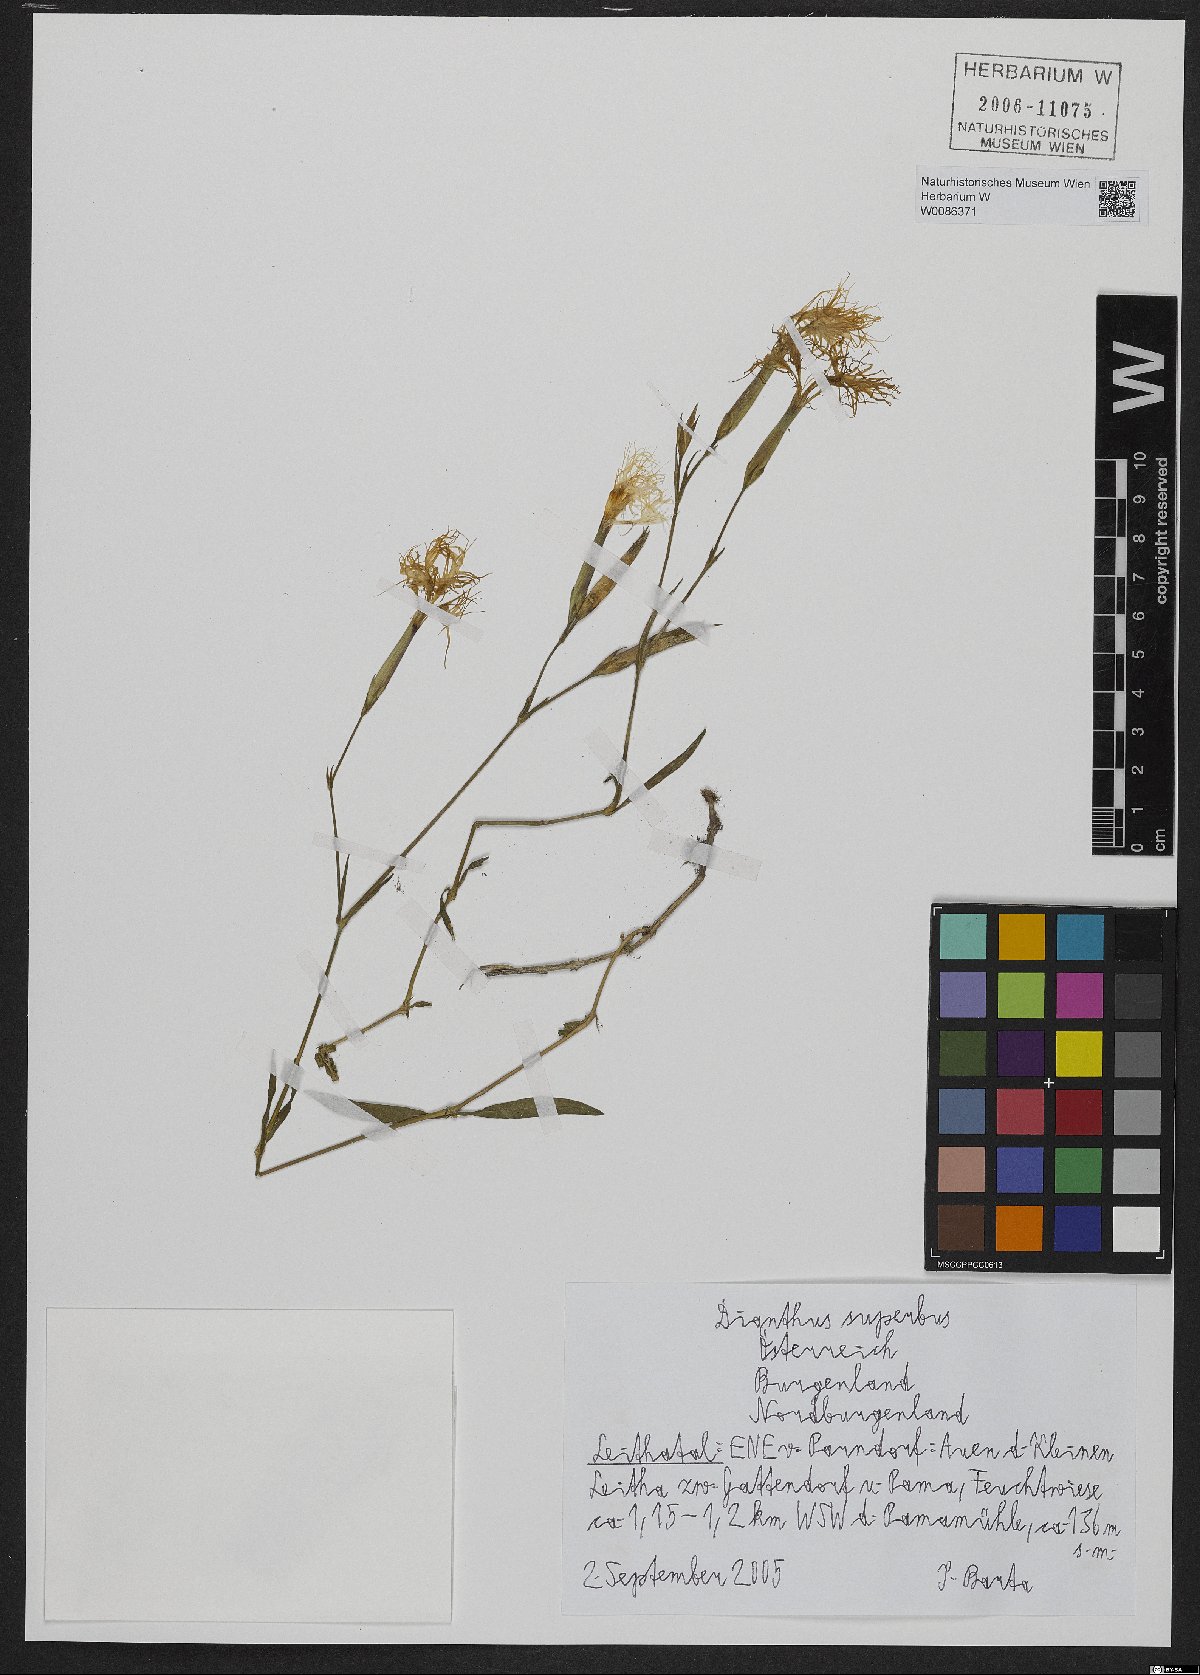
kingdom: Plantae
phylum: Tracheophyta
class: Magnoliopsida
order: Caryophyllales
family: Caryophyllaceae
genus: Dianthus
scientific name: Dianthus superbus
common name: Fringed pink
